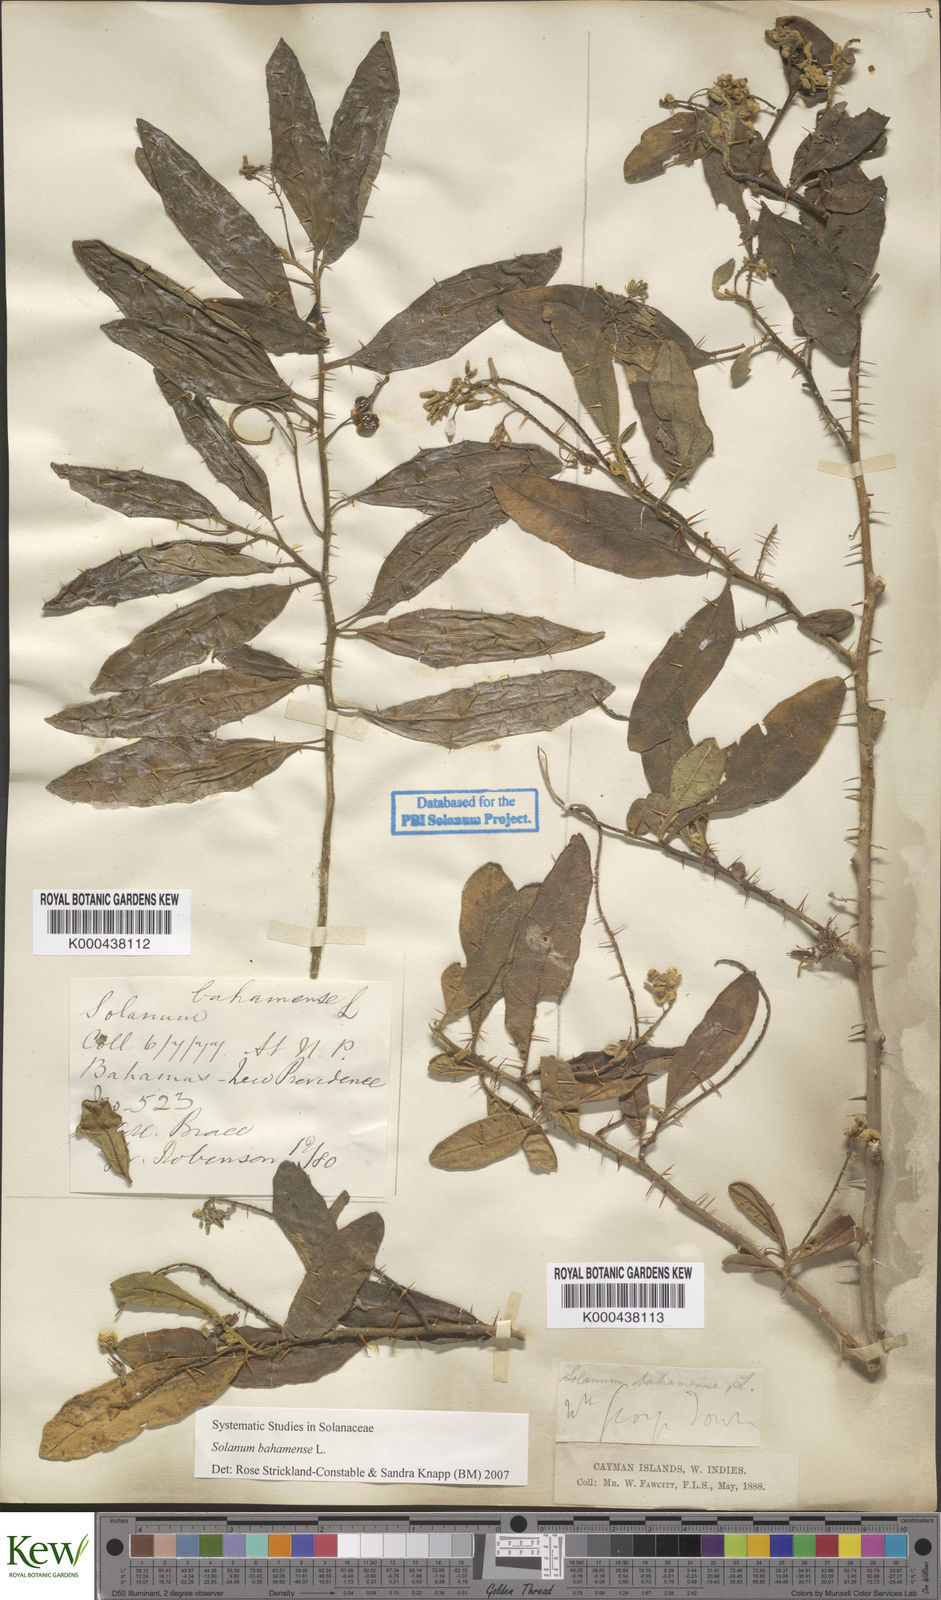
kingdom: Plantae
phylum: Tracheophyta
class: Magnoliopsida
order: Solanales
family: Solanaceae
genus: Solanum
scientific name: Solanum bahamense
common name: Canker-berry
